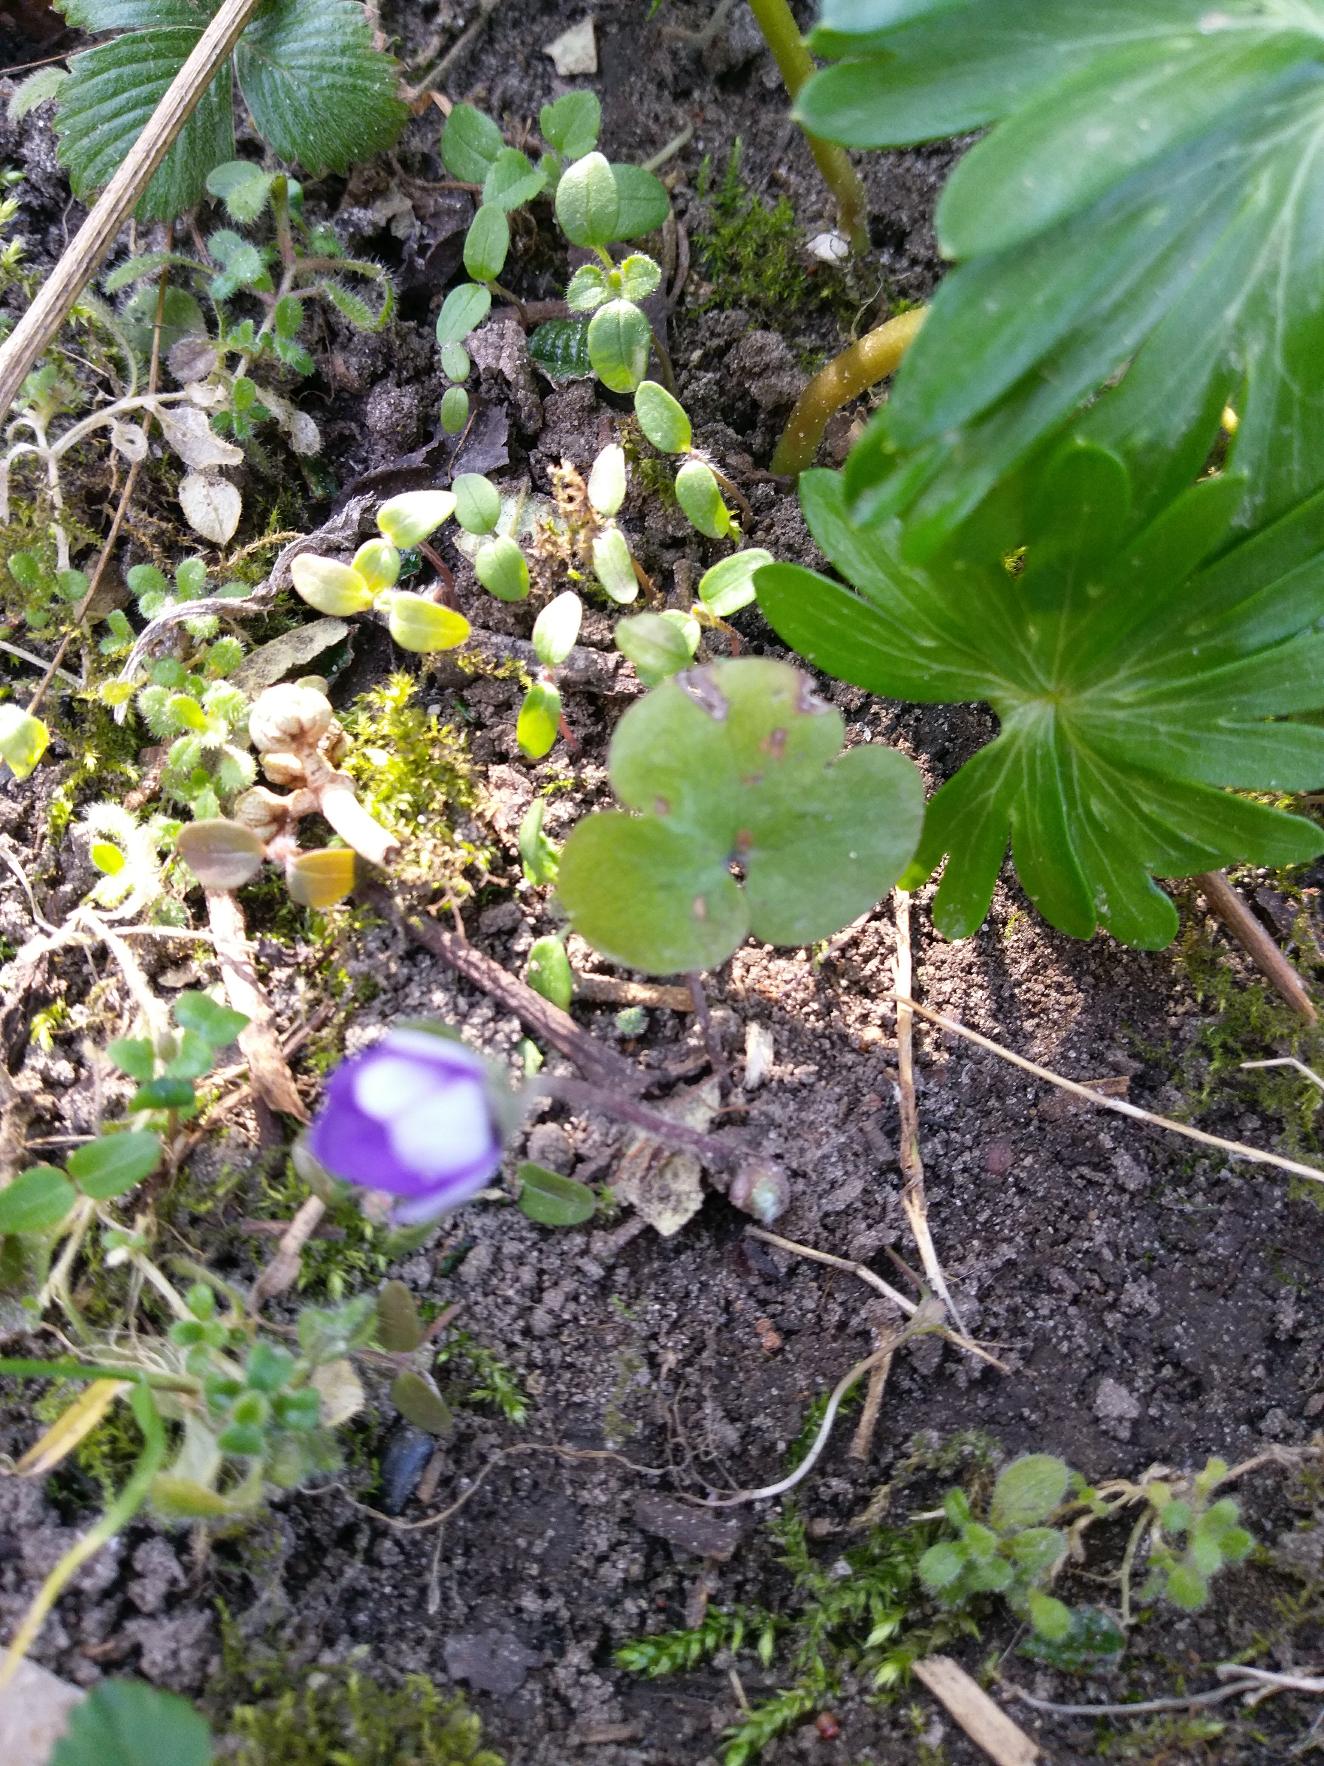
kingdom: Plantae
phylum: Tracheophyta
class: Magnoliopsida
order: Ranunculales
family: Ranunculaceae
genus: Hepatica
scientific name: Hepatica nobilis
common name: Blå anemone
